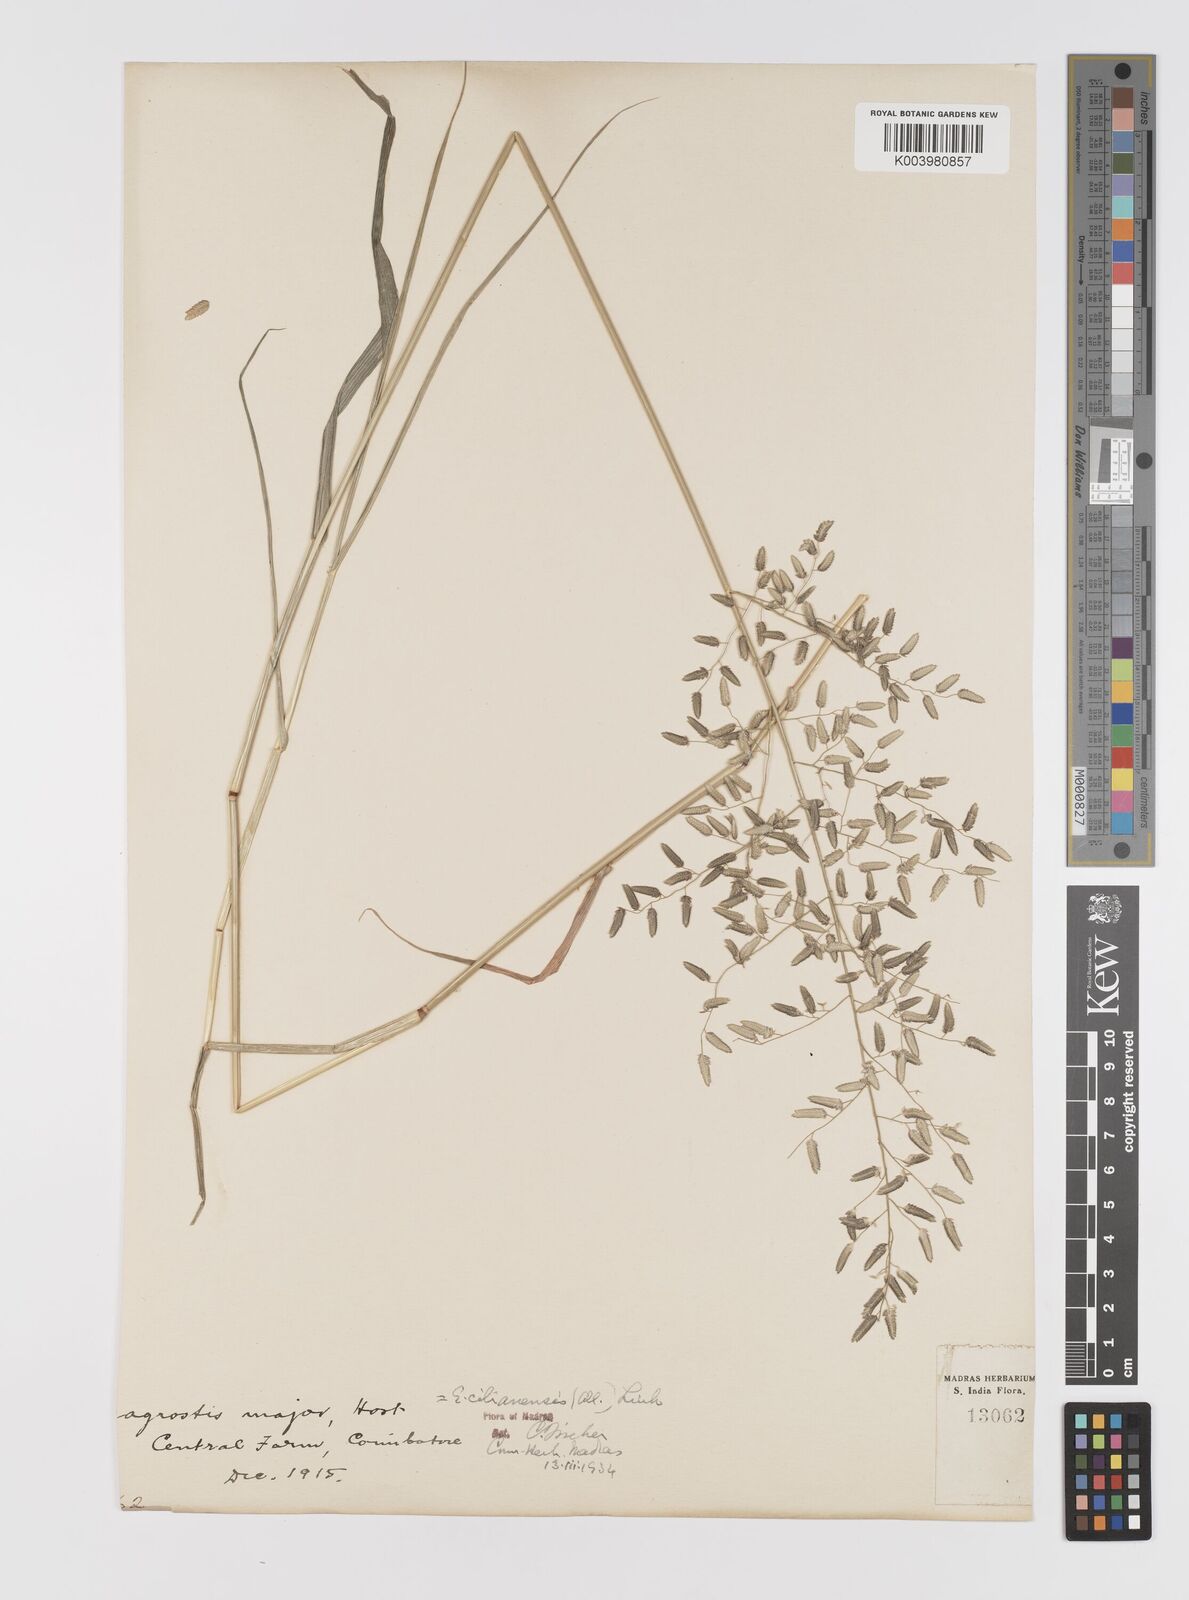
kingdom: Plantae
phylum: Tracheophyta
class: Liliopsida
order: Poales
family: Poaceae
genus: Eragrostis
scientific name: Eragrostis cilianensis
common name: Stinkgrass
